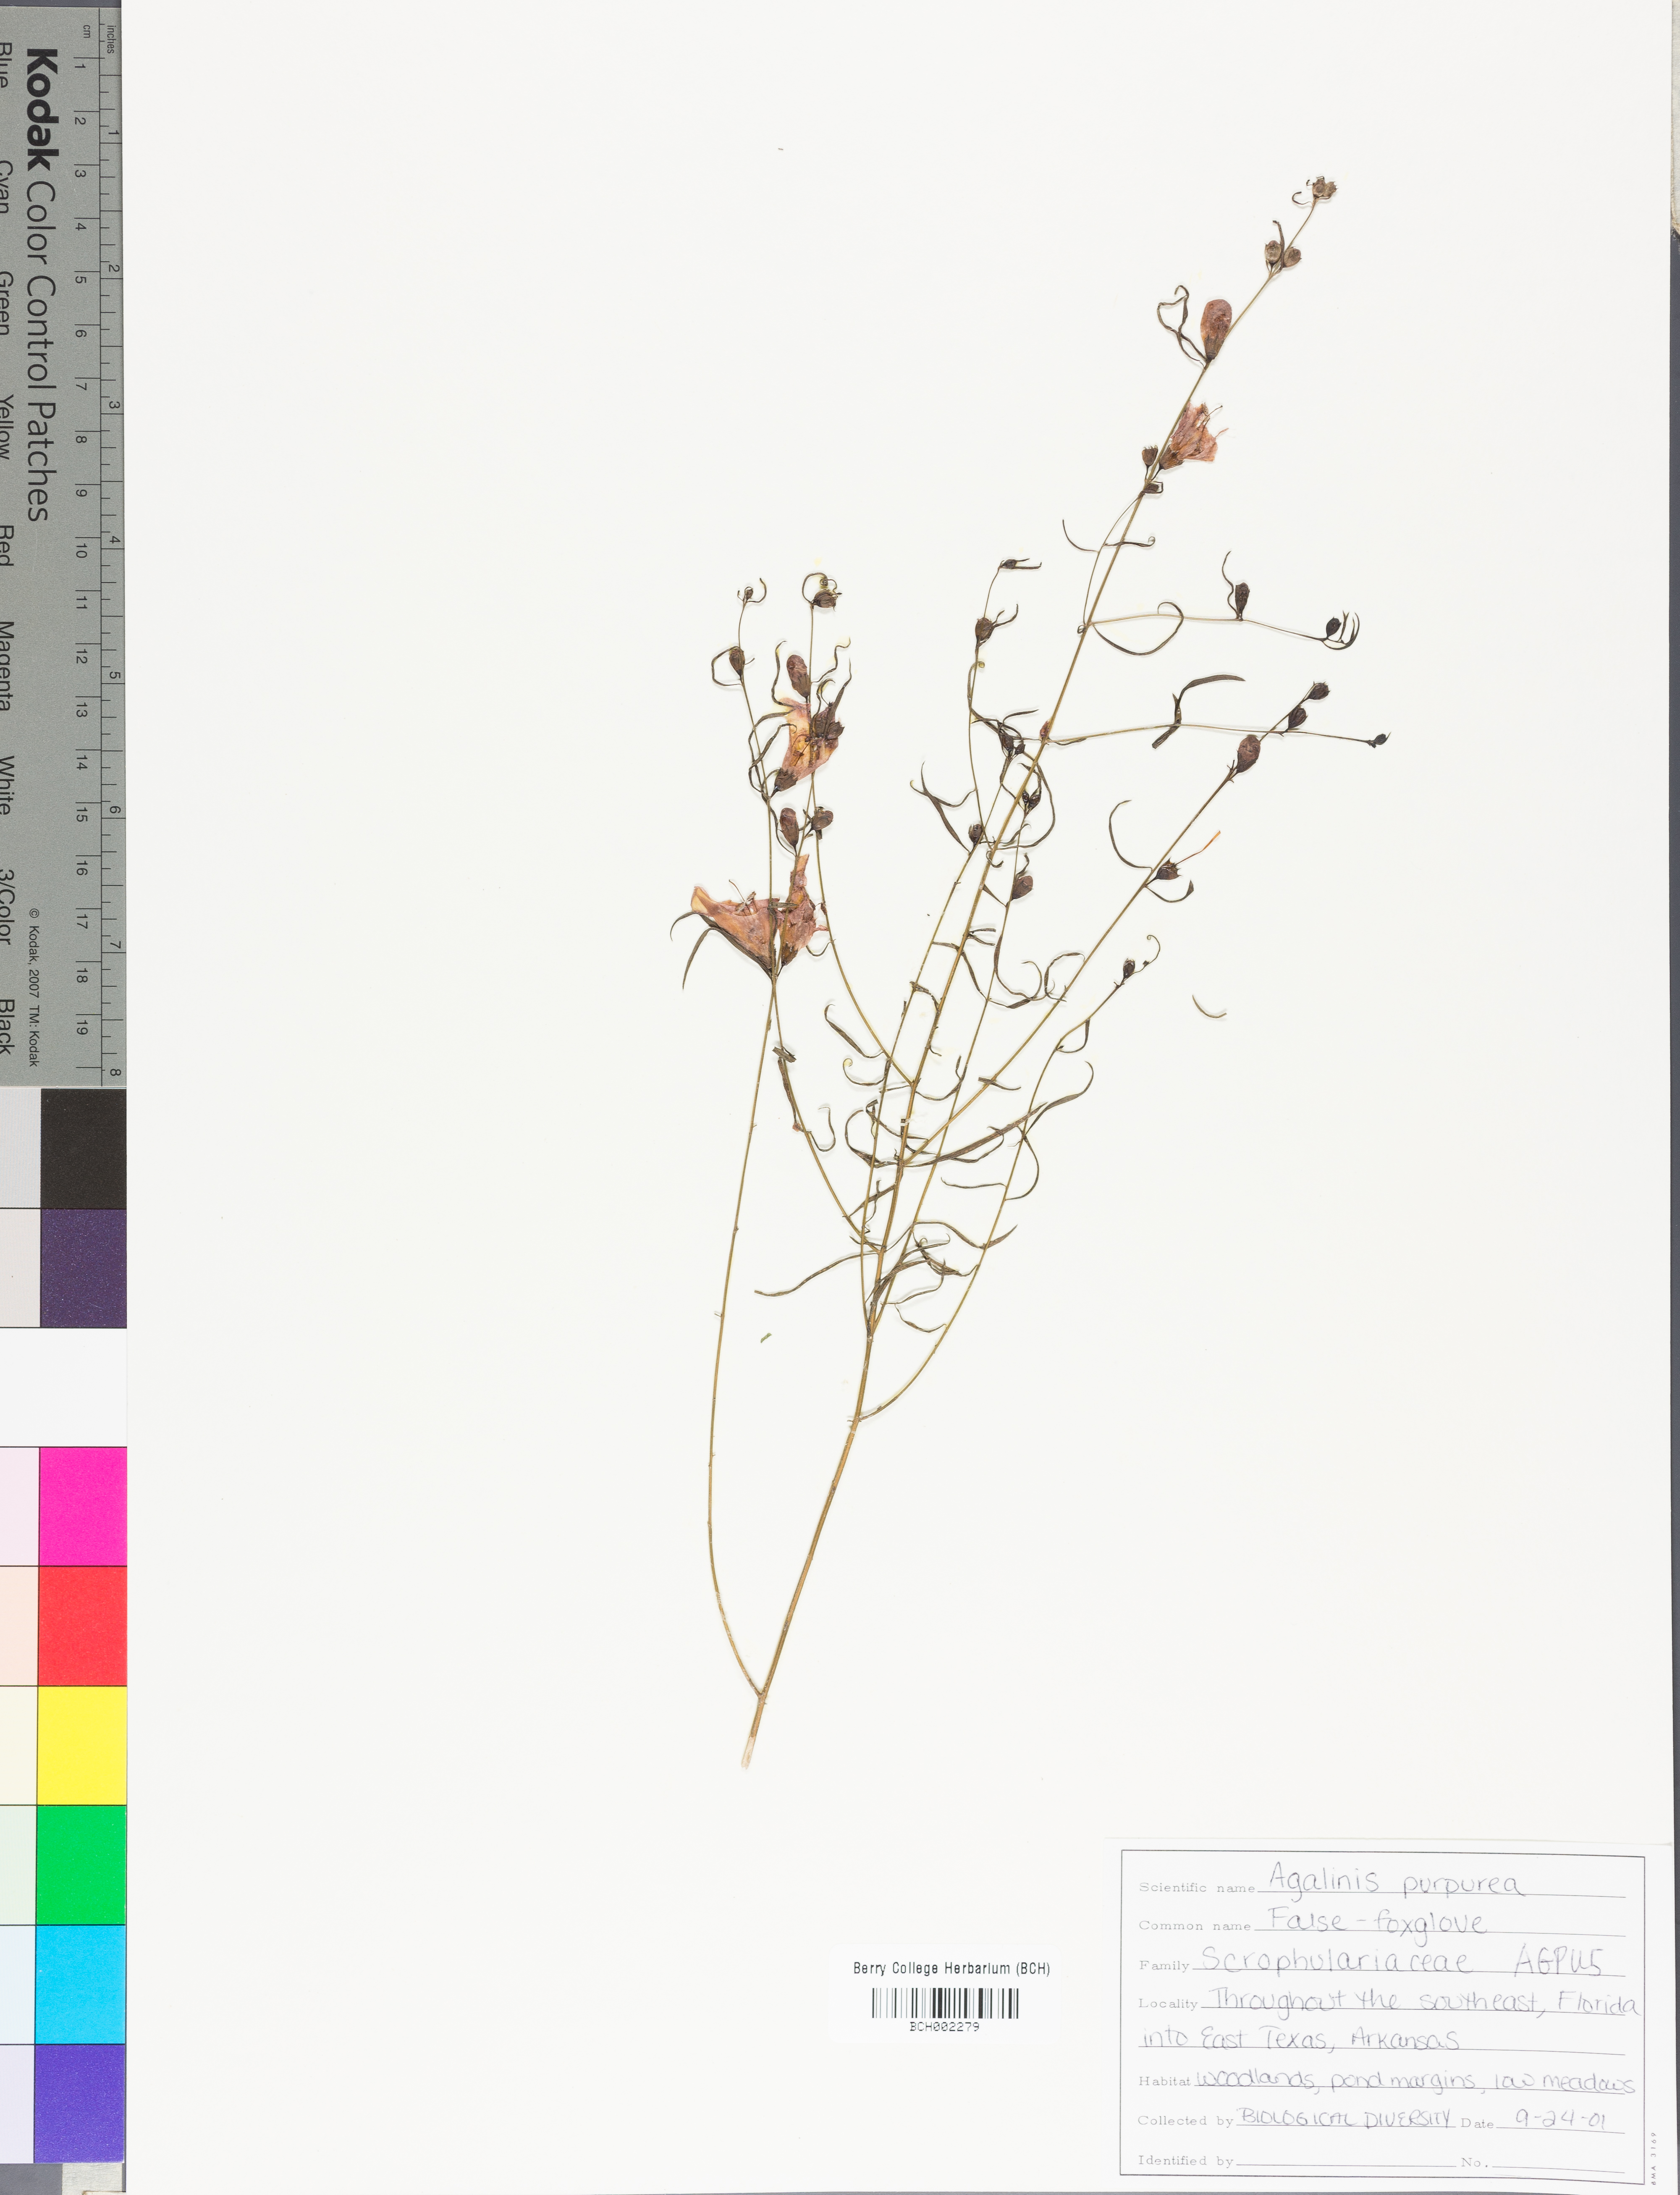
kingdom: Plantae
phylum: Tracheophyta
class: Magnoliopsida
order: Lamiales
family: Orobanchaceae
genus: Agalinis
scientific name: Agalinis purpurea
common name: Purple false foxglove
